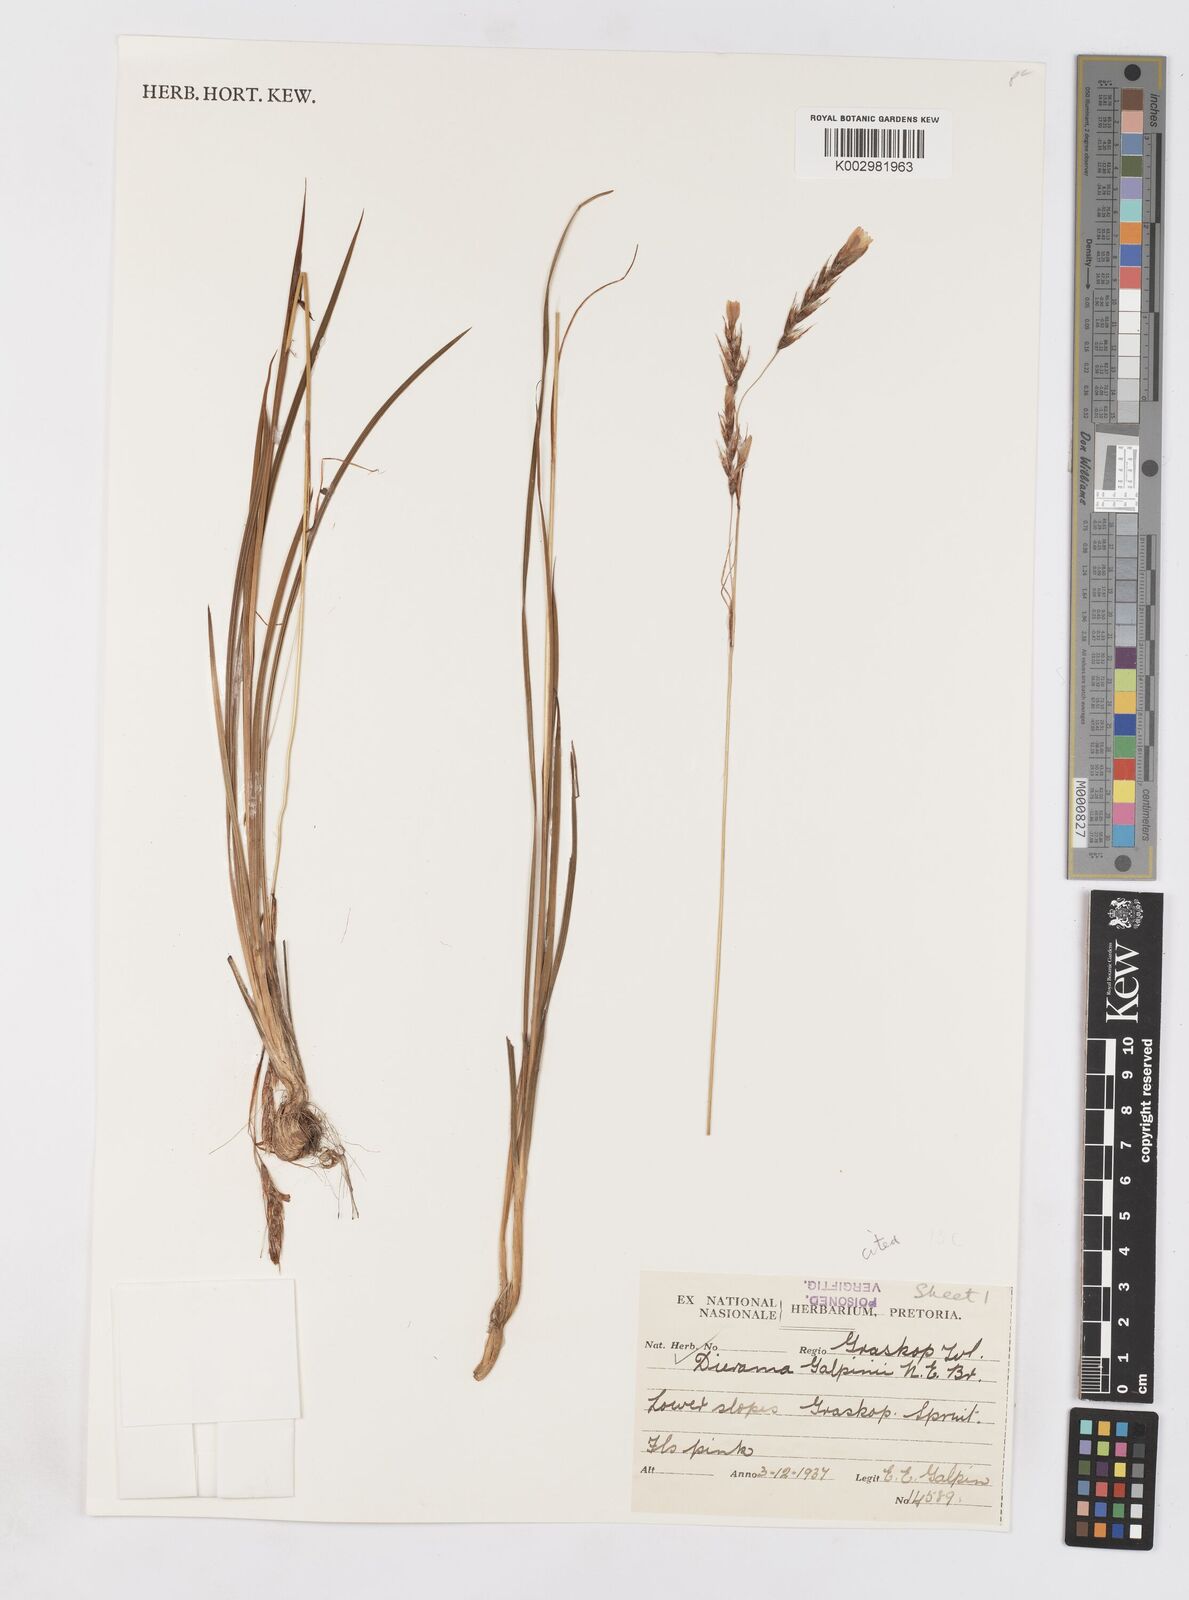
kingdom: Plantae
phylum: Tracheophyta
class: Liliopsida
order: Asparagales
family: Iridaceae
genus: Dierama
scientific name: Dierama medium
